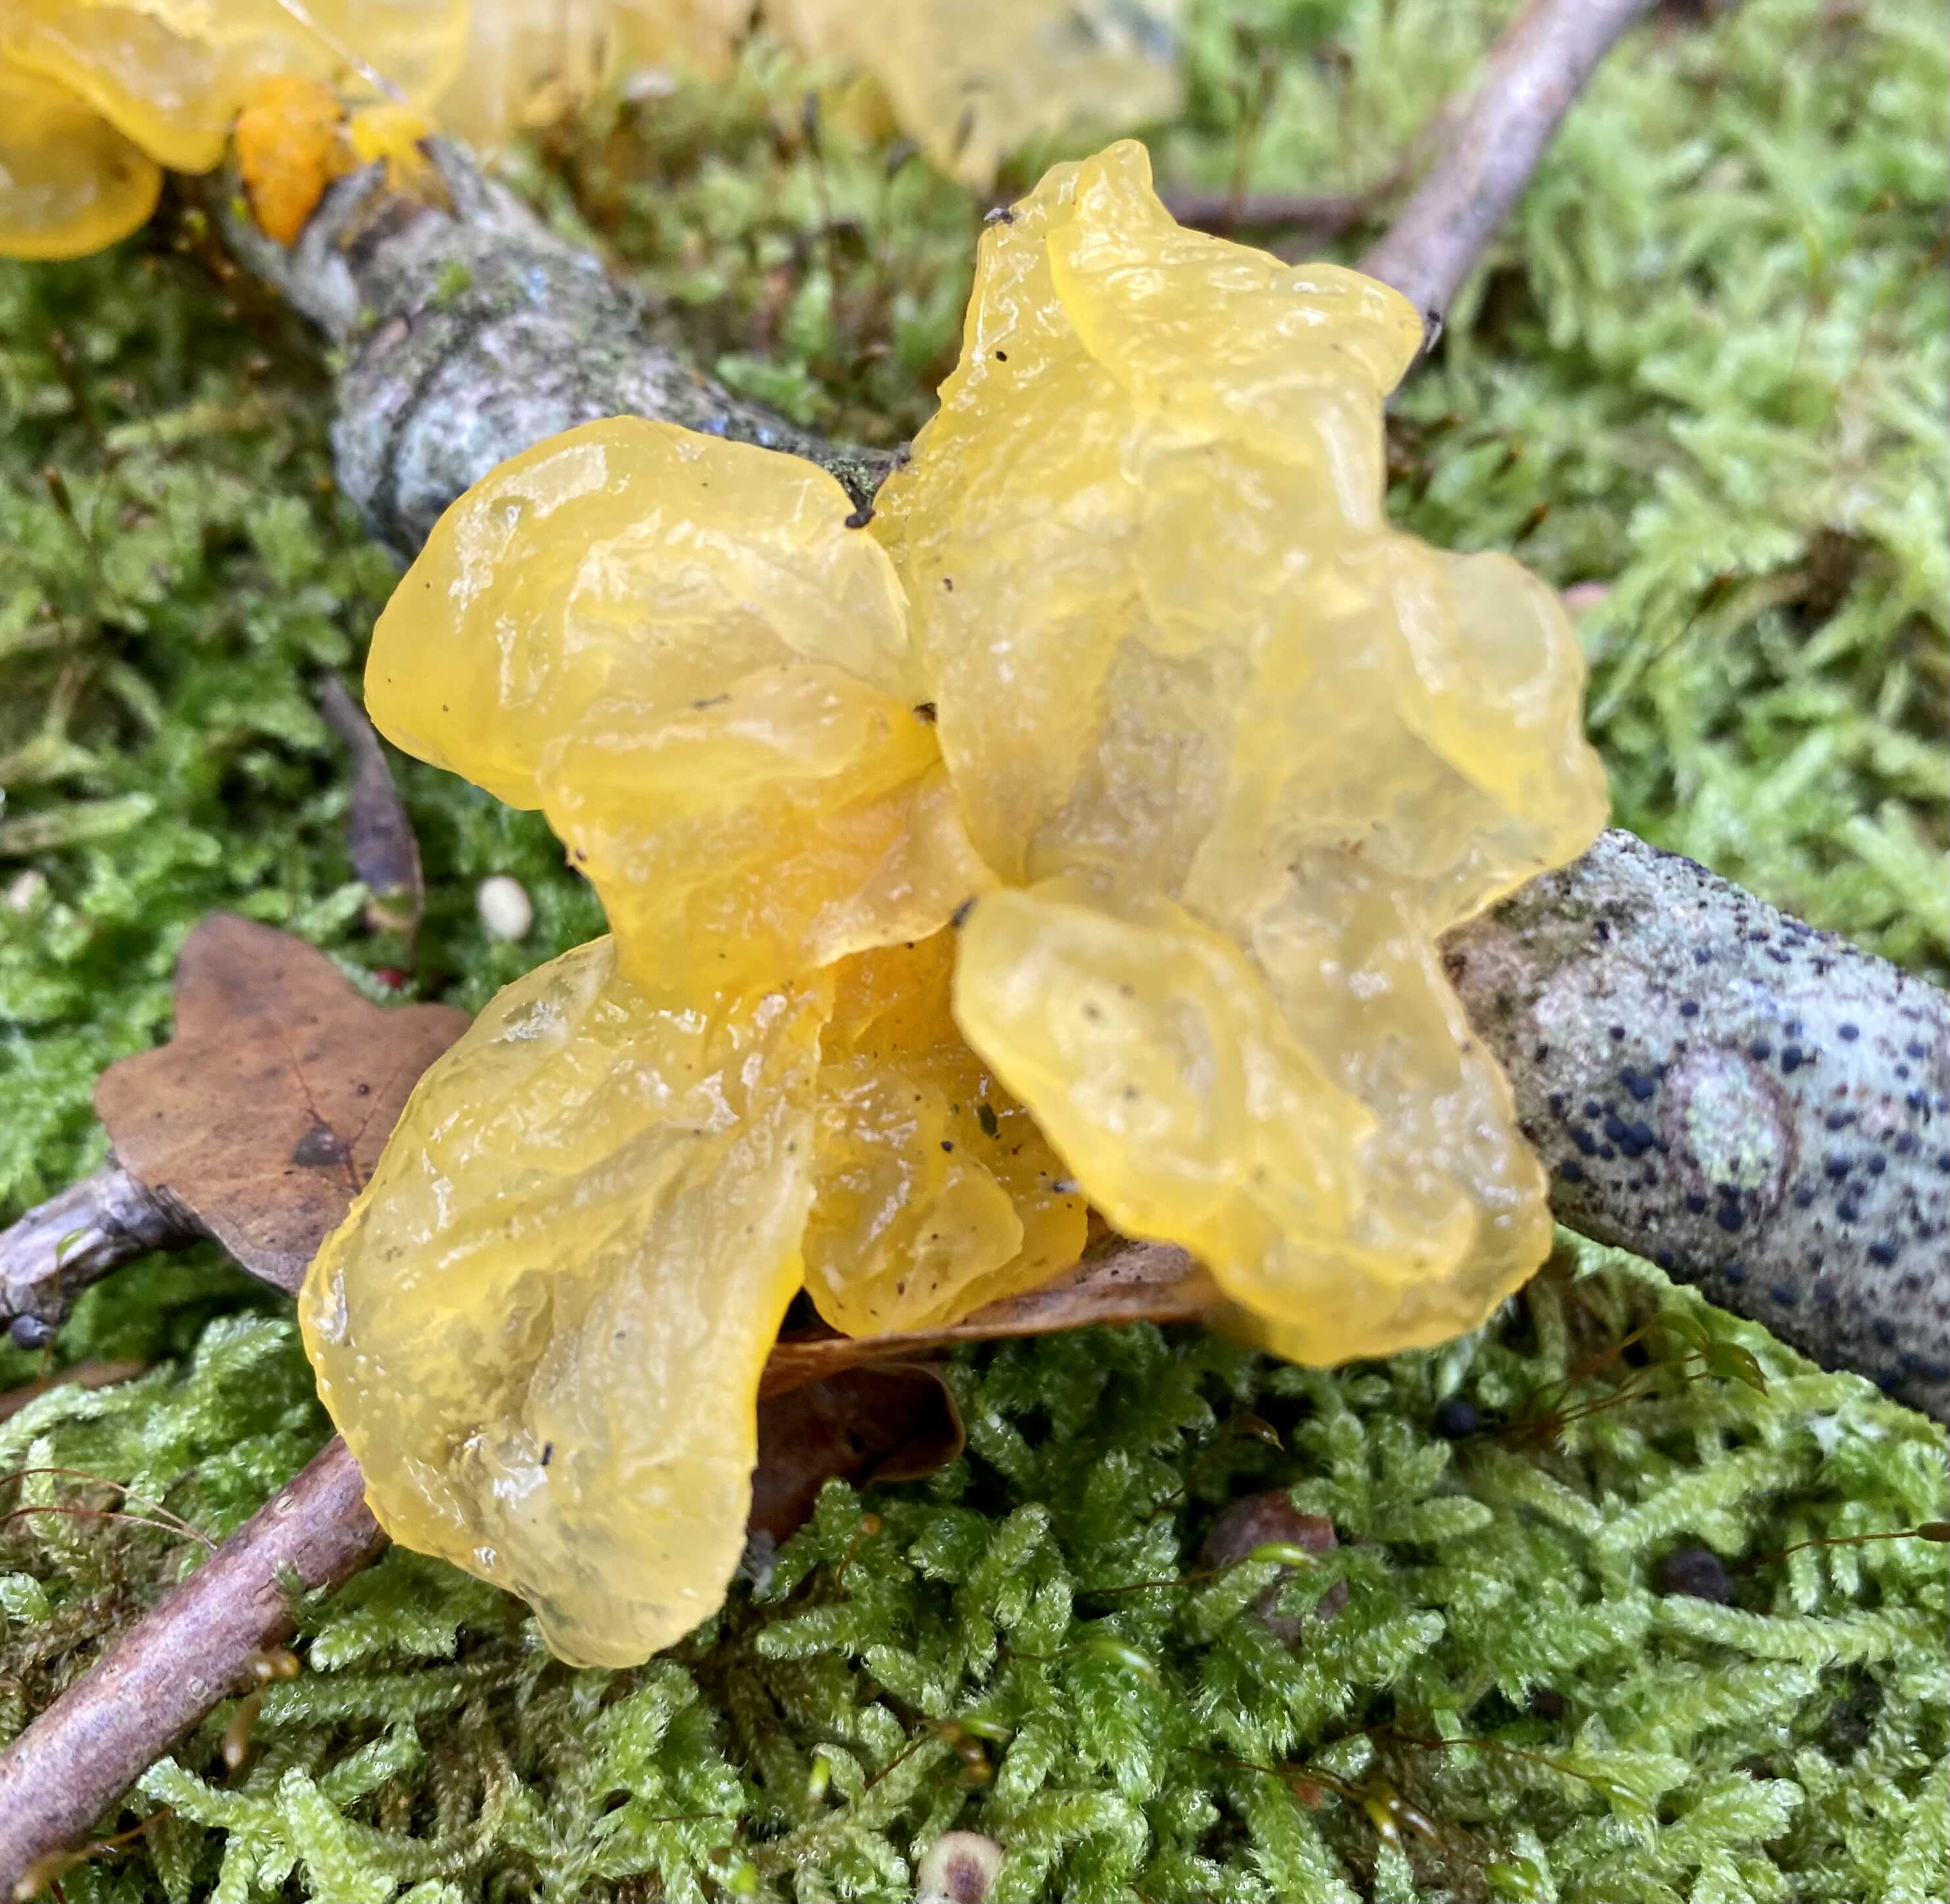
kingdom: Fungi
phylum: Basidiomycota
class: Tremellomycetes
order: Tremellales
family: Tremellaceae
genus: Tremella
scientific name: Tremella mesenterica
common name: gul bævresvamp
